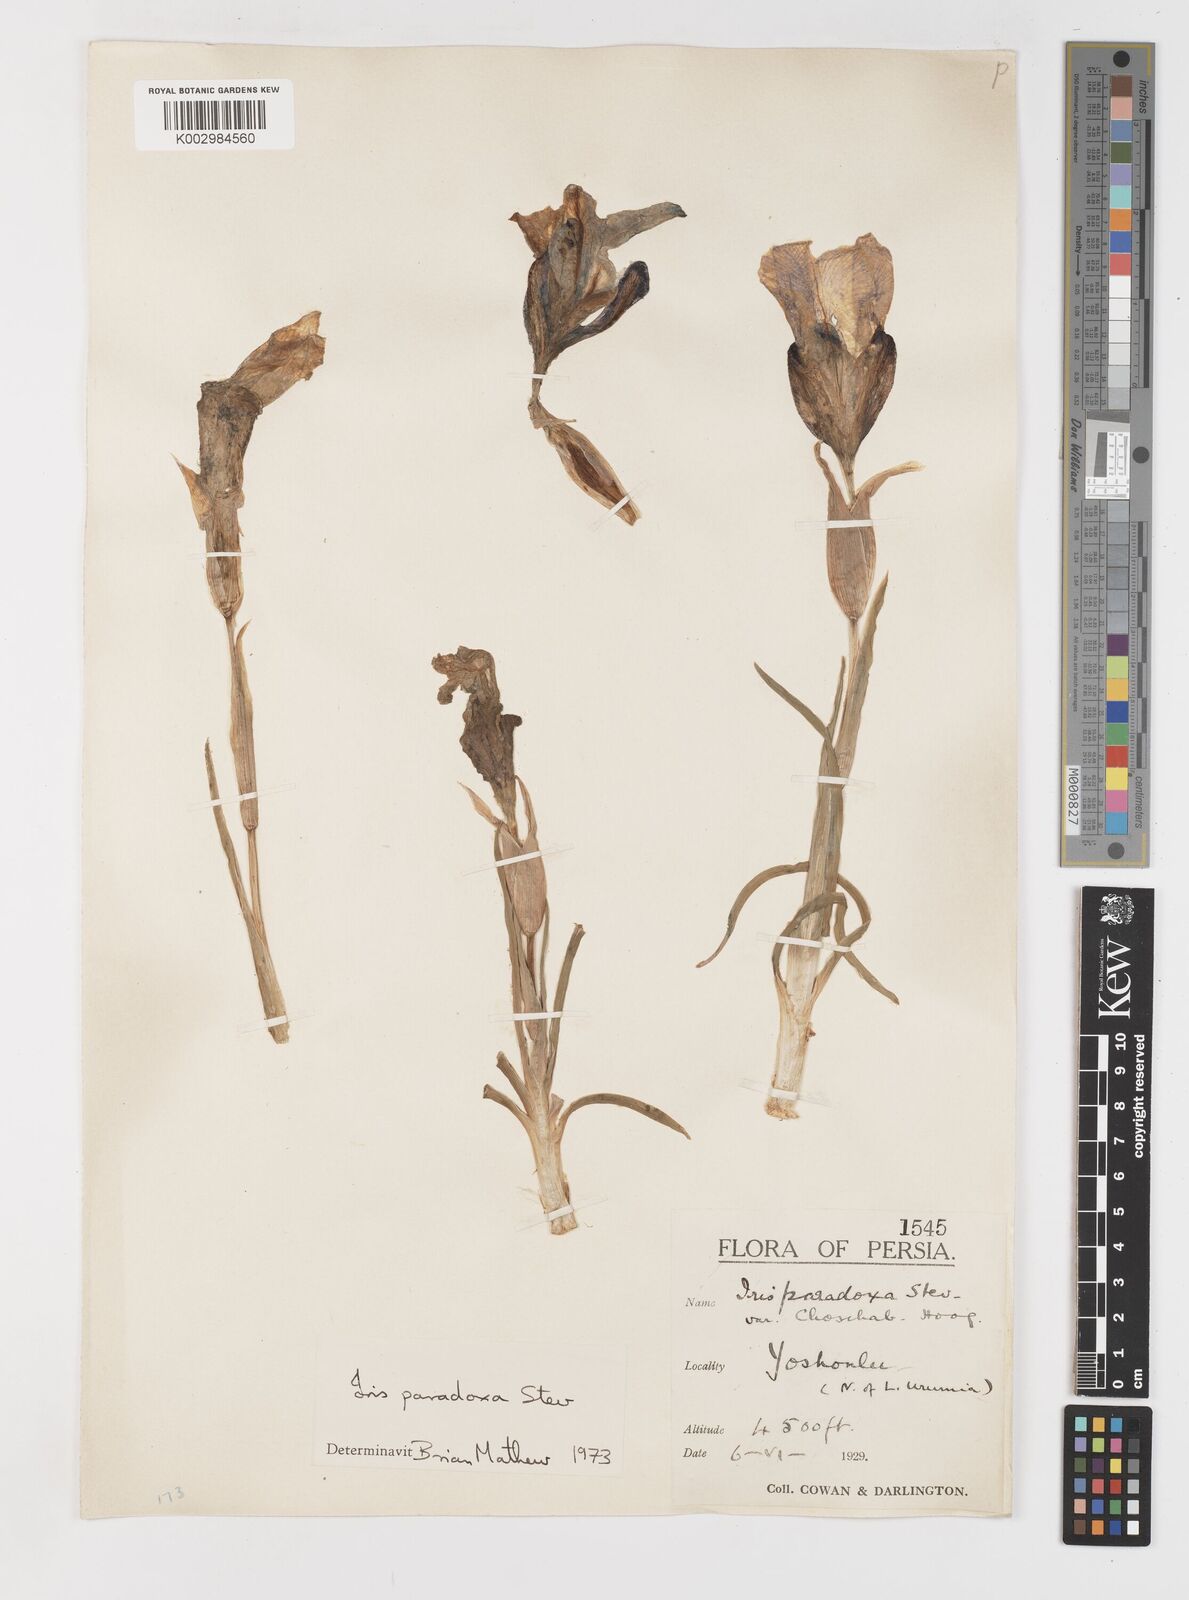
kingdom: Plantae
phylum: Tracheophyta
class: Liliopsida
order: Asparagales
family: Iridaceae
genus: Iris
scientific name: Iris paradoxa
